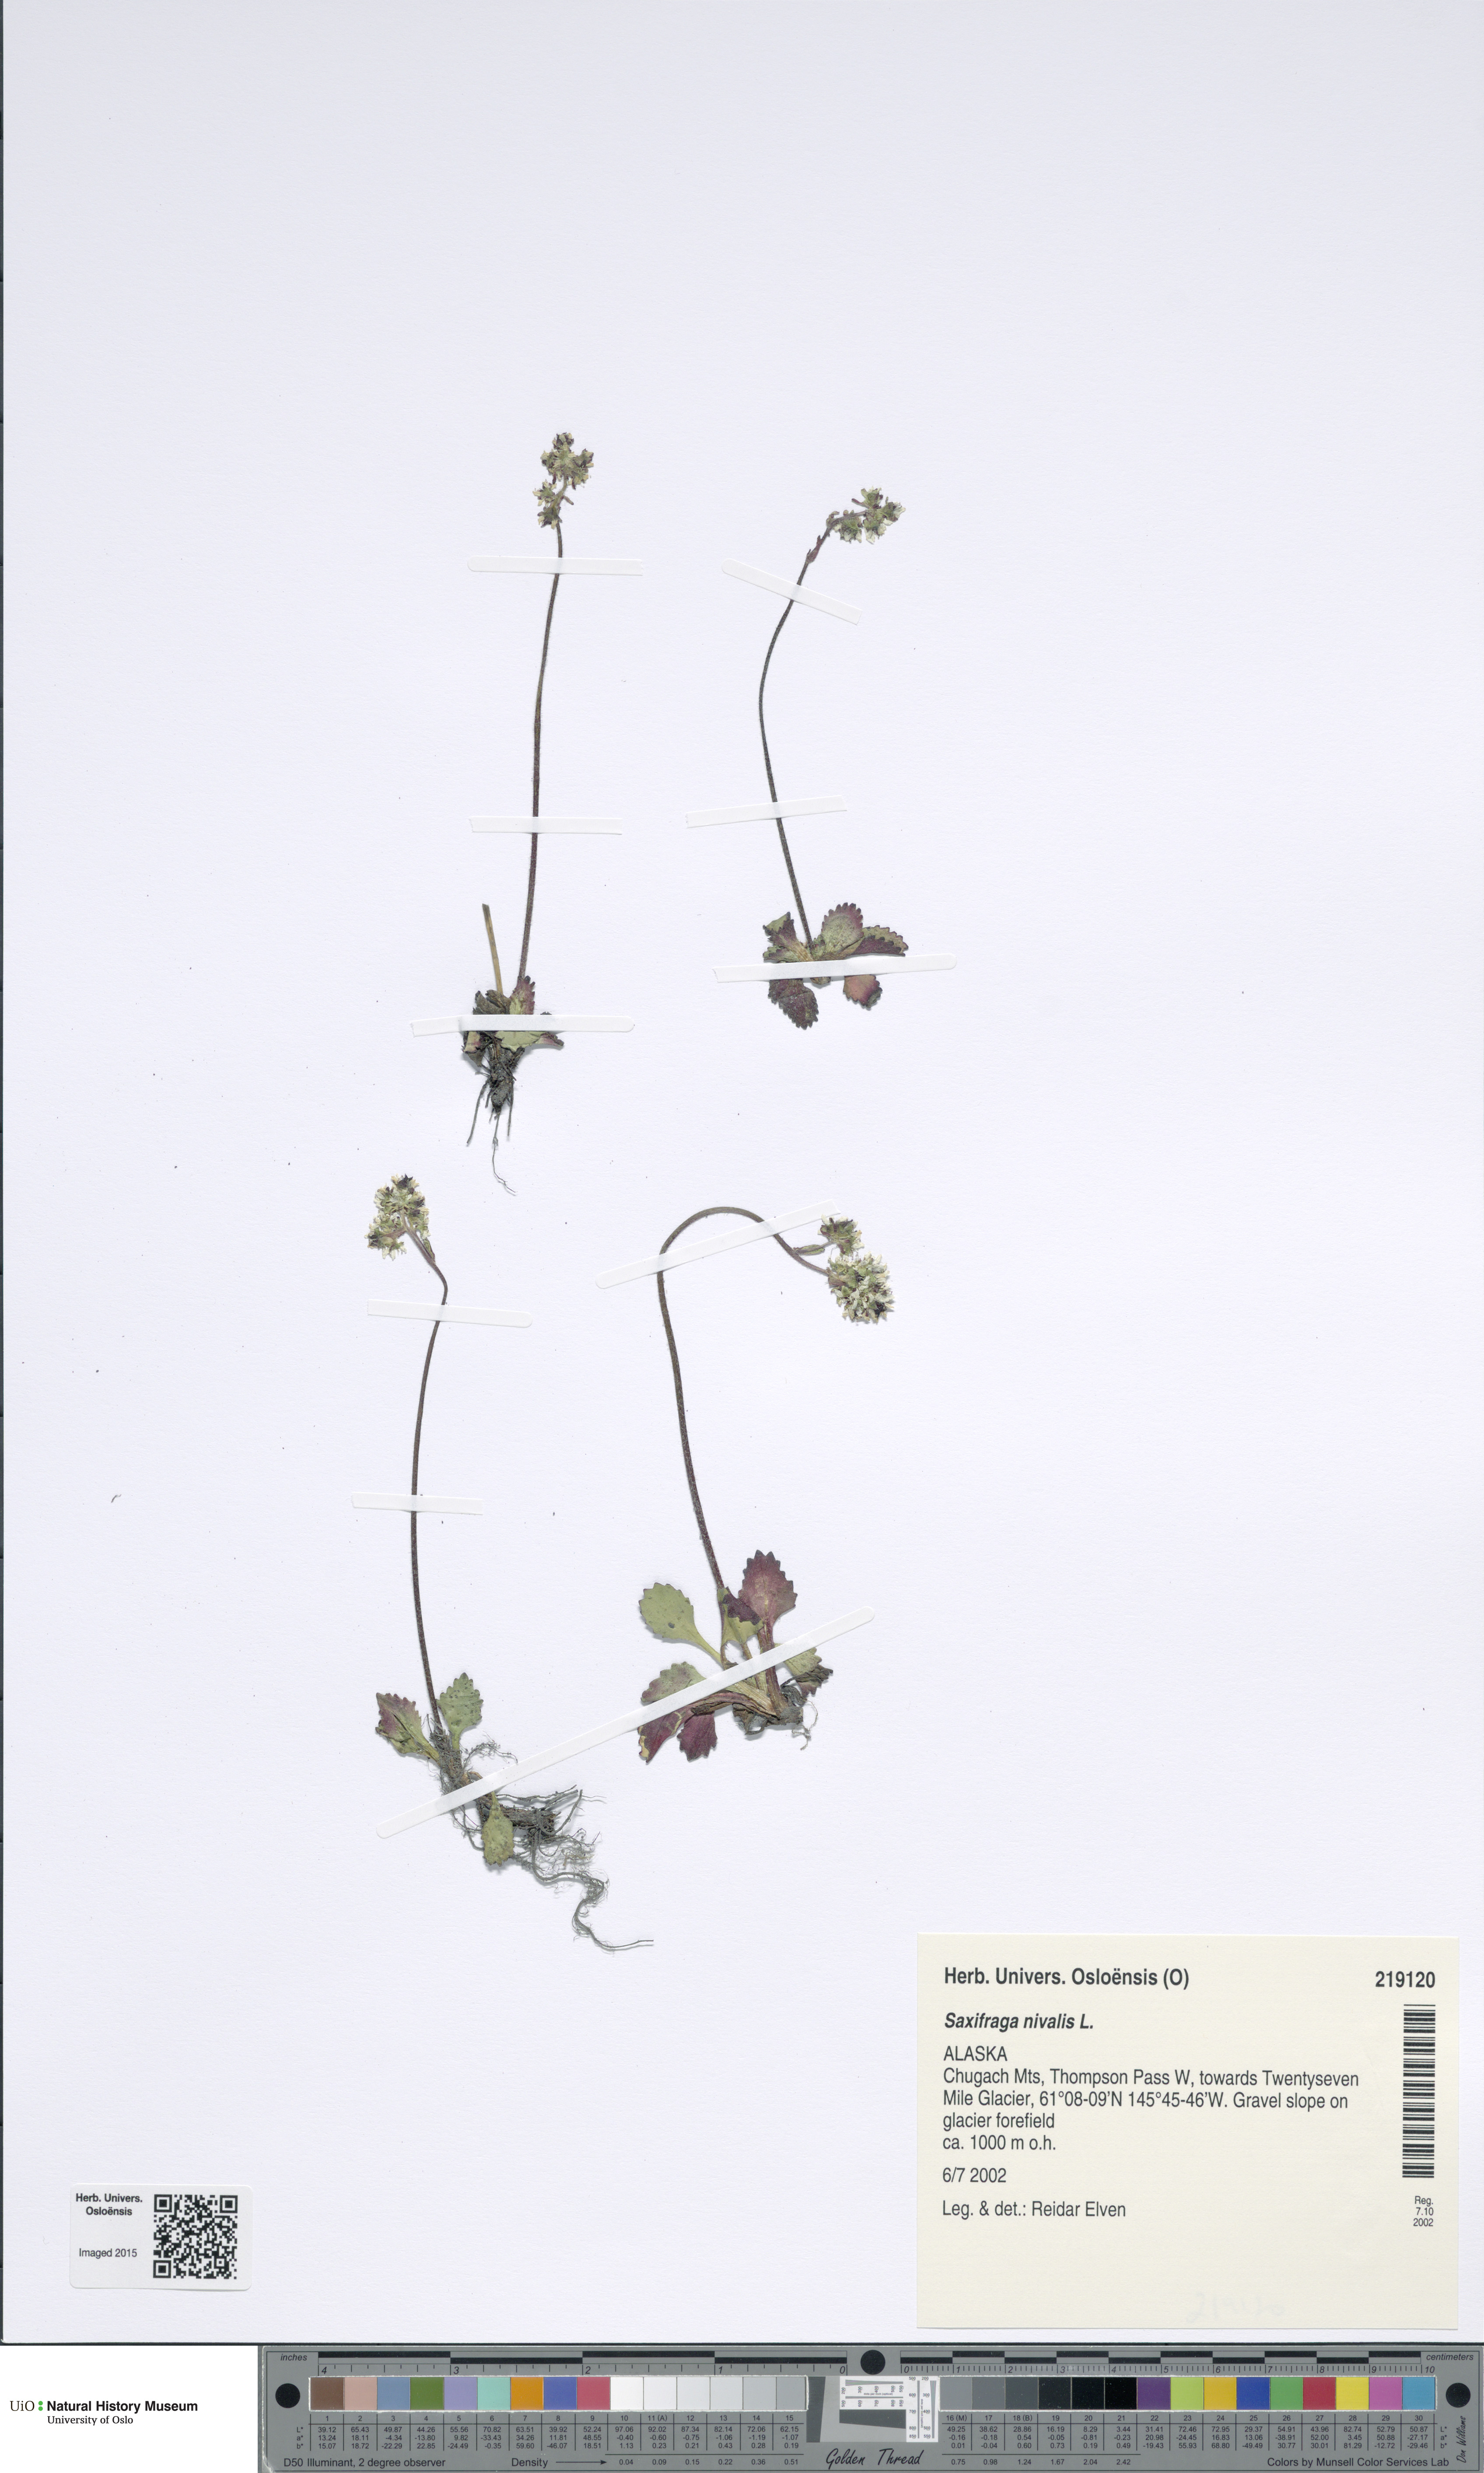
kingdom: Plantae
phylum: Tracheophyta
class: Magnoliopsida
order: Saxifragales
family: Saxifragaceae
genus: Micranthes
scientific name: Micranthes nivalis
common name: Alpine saxifrage
